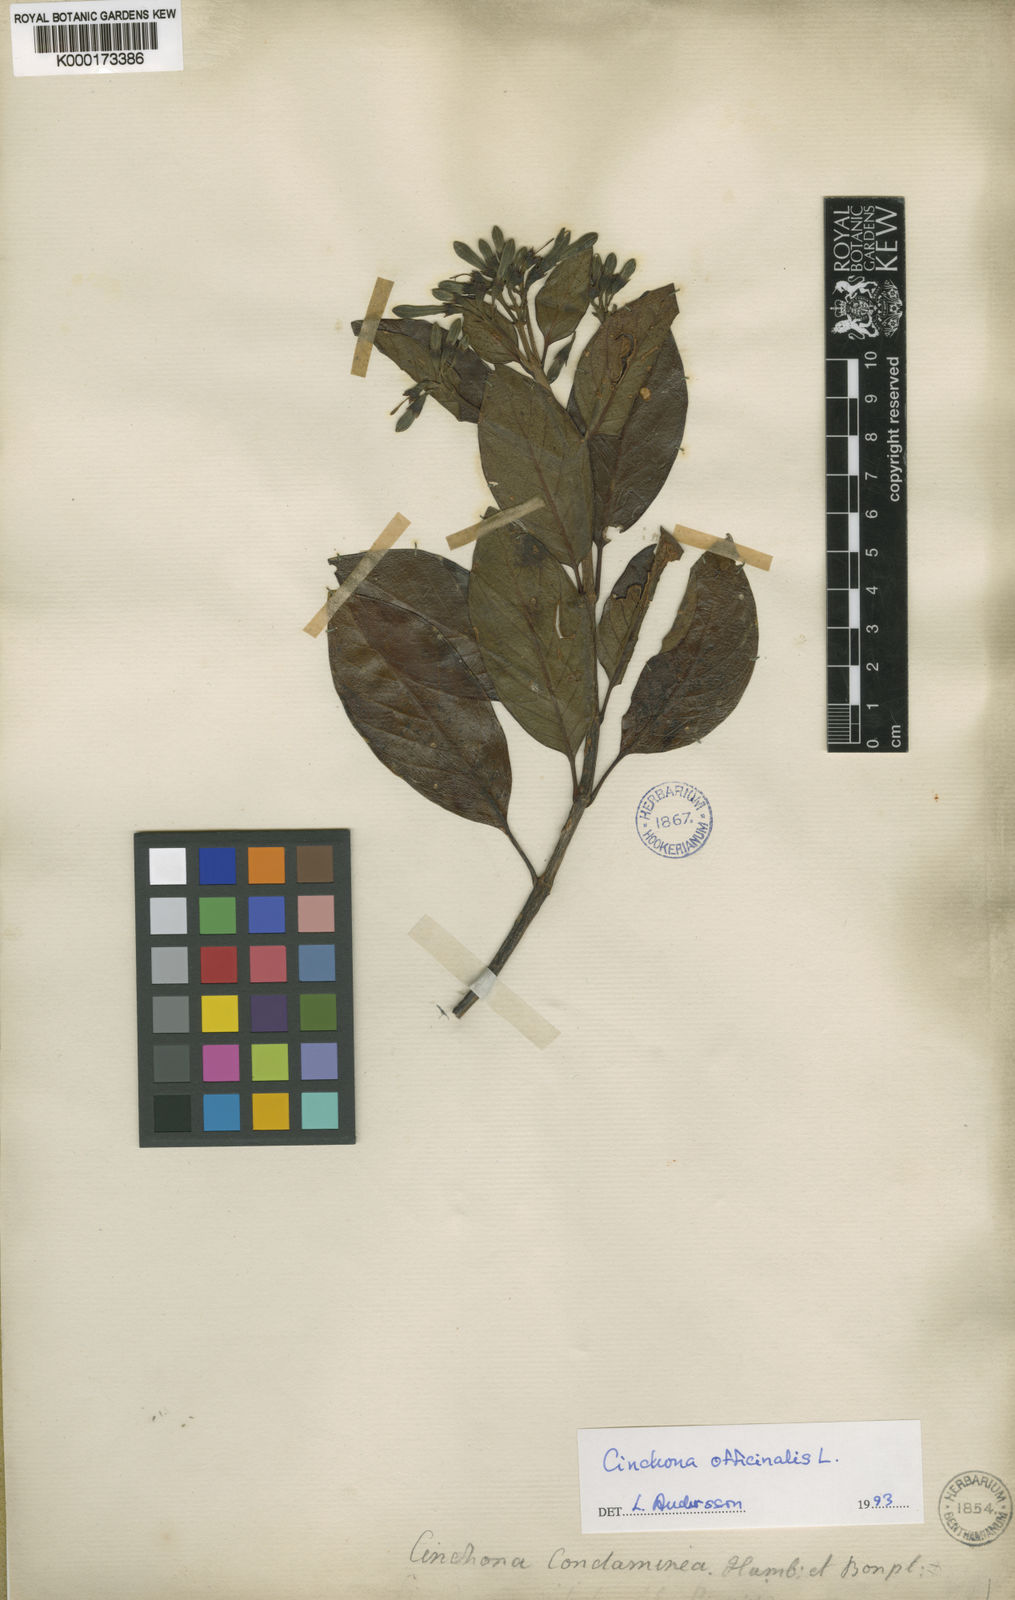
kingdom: Plantae
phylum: Tracheophyta
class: Magnoliopsida
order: Gentianales
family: Rubiaceae
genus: Cinchona
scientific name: Cinchona officinalis
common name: Lojabark
